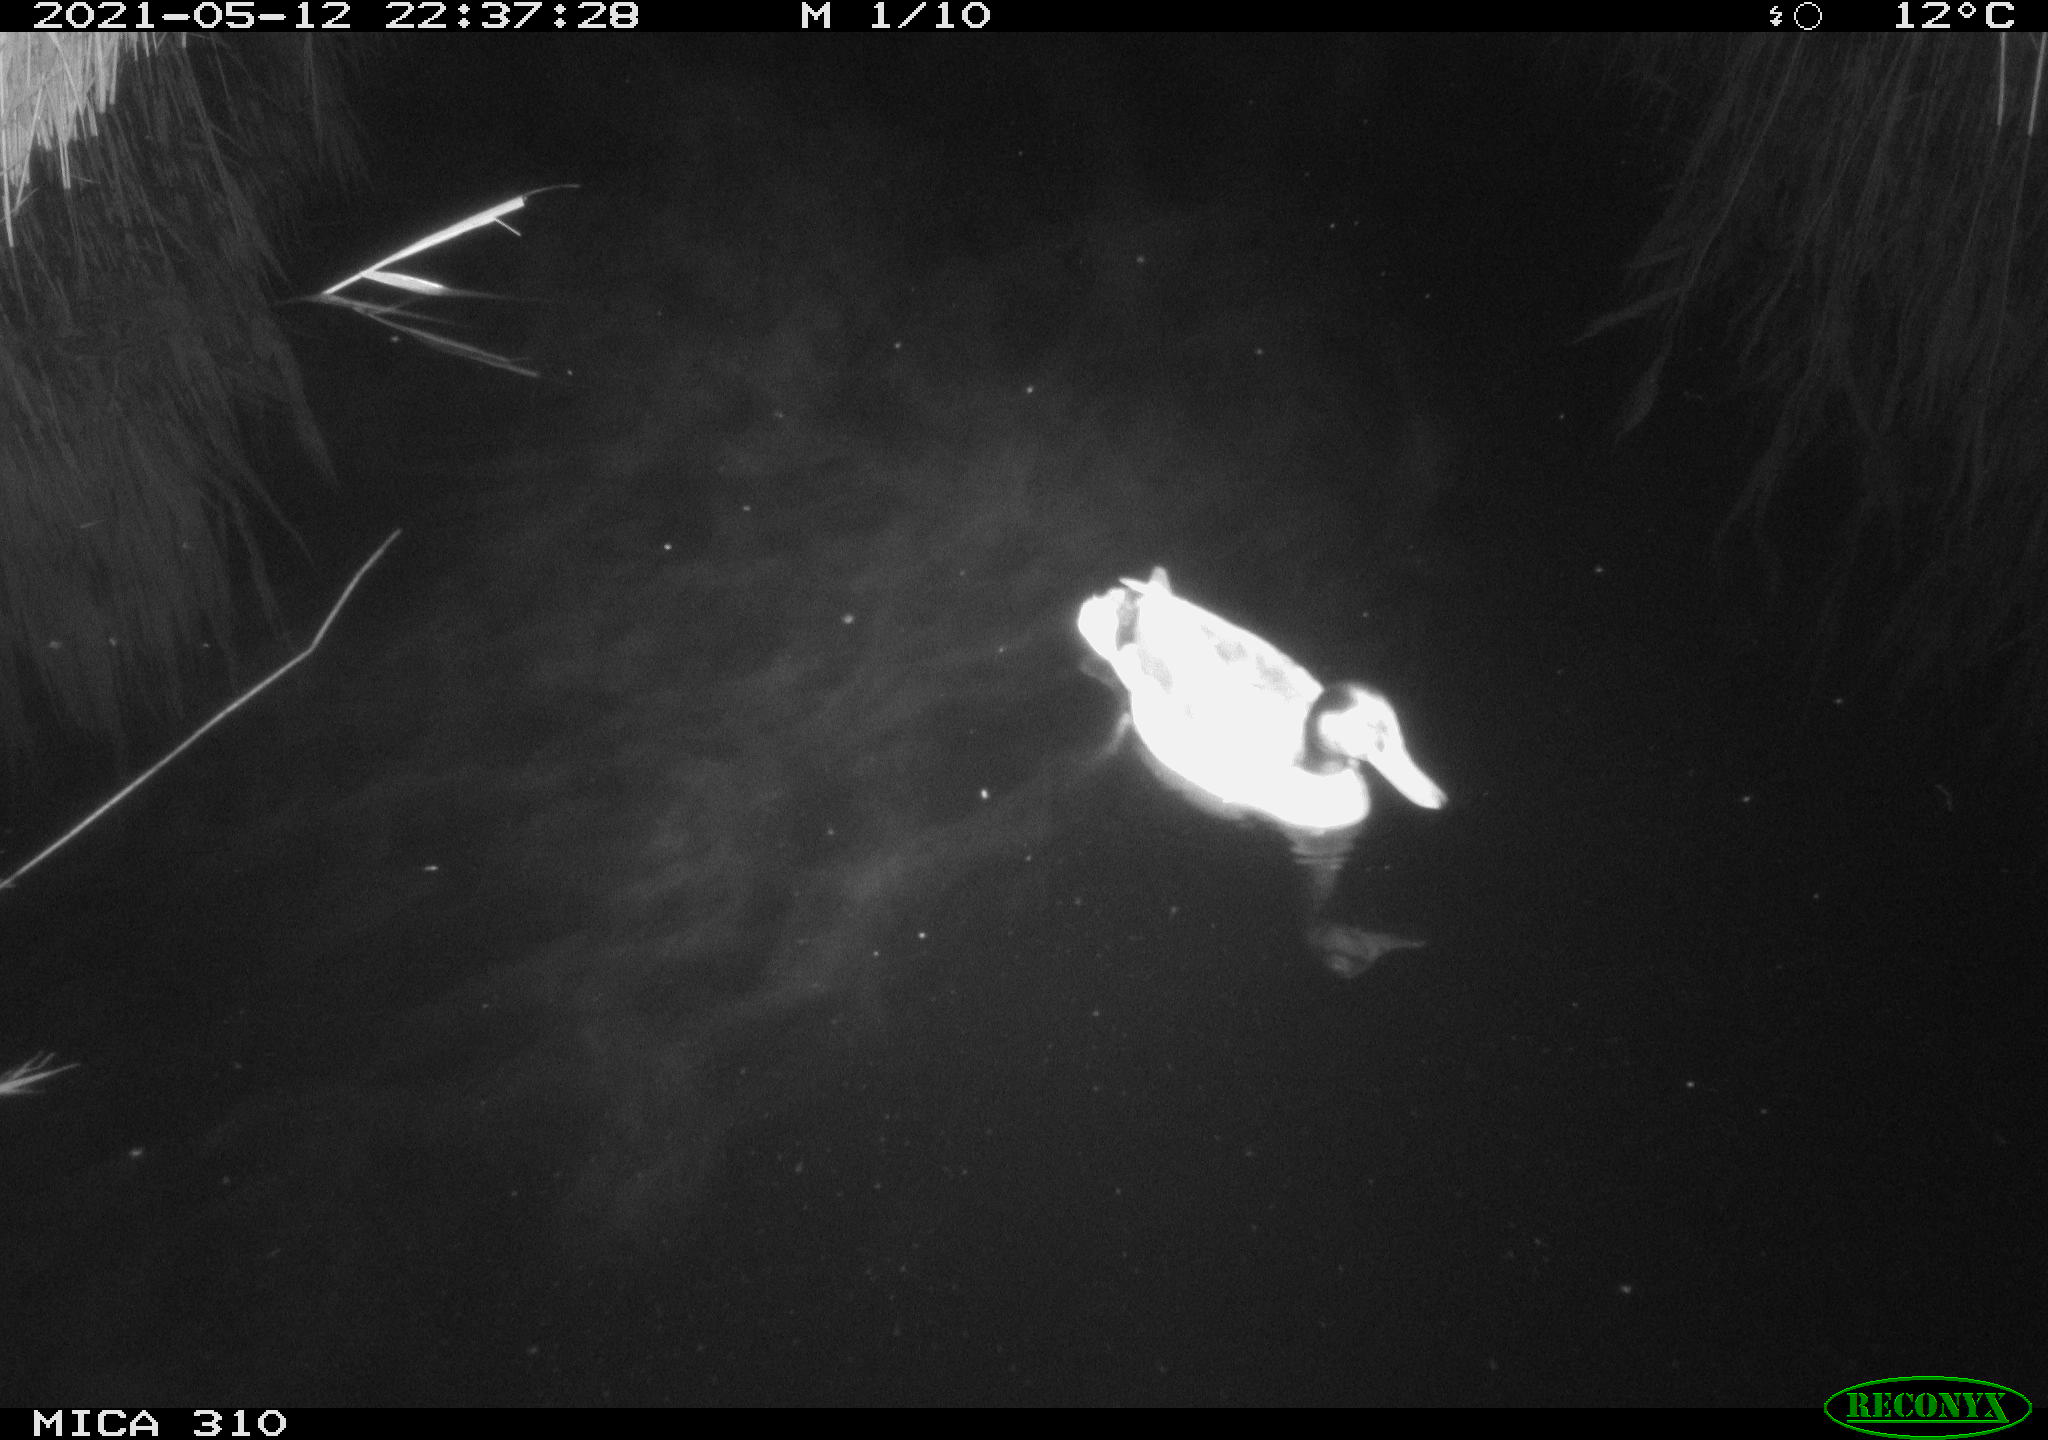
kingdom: Animalia
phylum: Chordata
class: Aves
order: Anseriformes
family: Anatidae
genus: Anas
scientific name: Anas platyrhynchos
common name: Mallard
